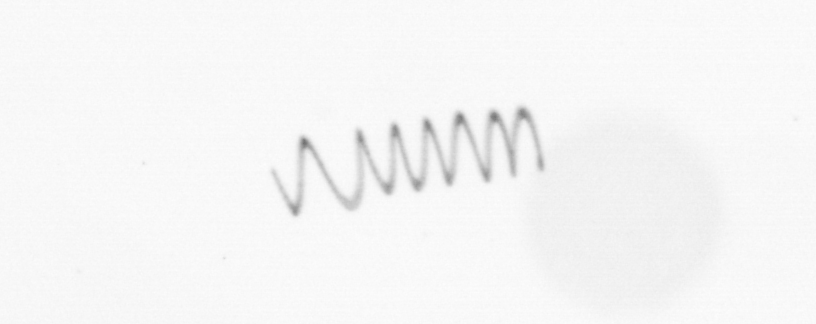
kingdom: Chromista
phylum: Ochrophyta
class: Bacillariophyceae
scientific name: Bacillariophyceae
